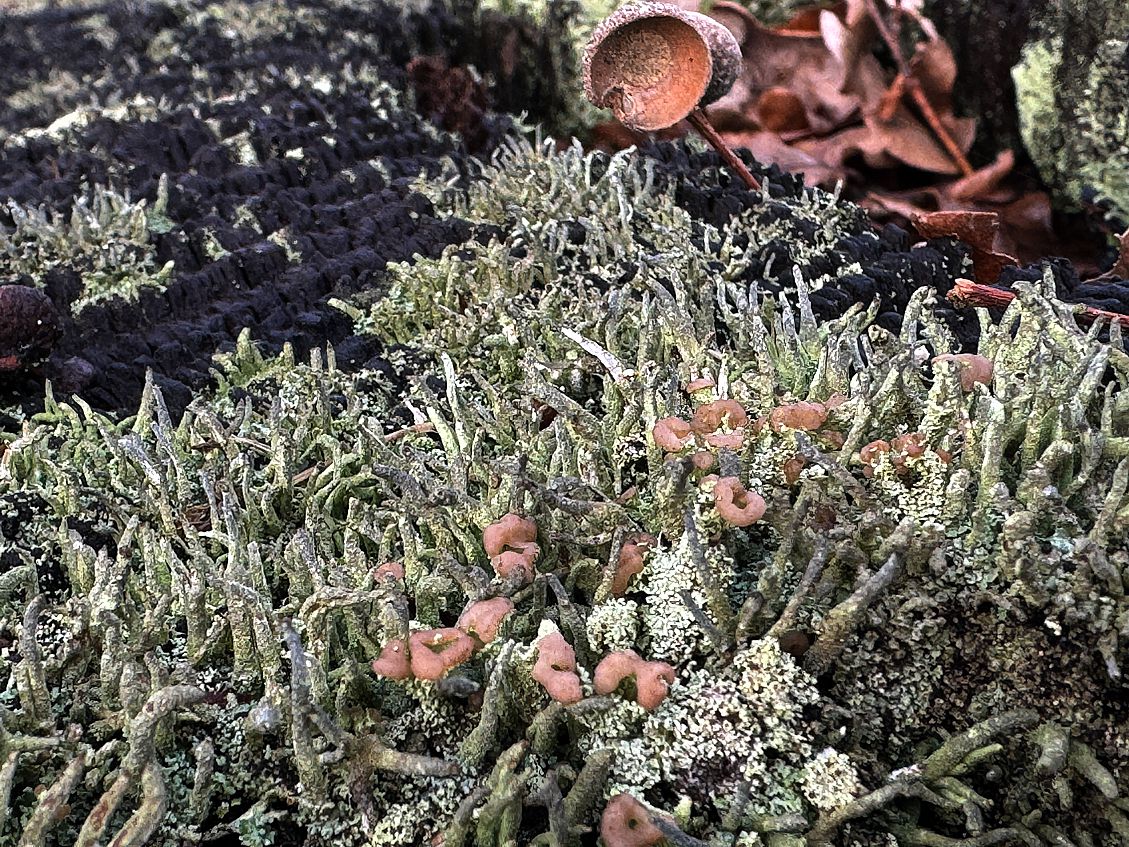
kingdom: Fungi
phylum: Ascomycota
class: Lecanoromycetes
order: Lecanorales
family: Cladoniaceae
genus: Cladonia
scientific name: Cladonia
